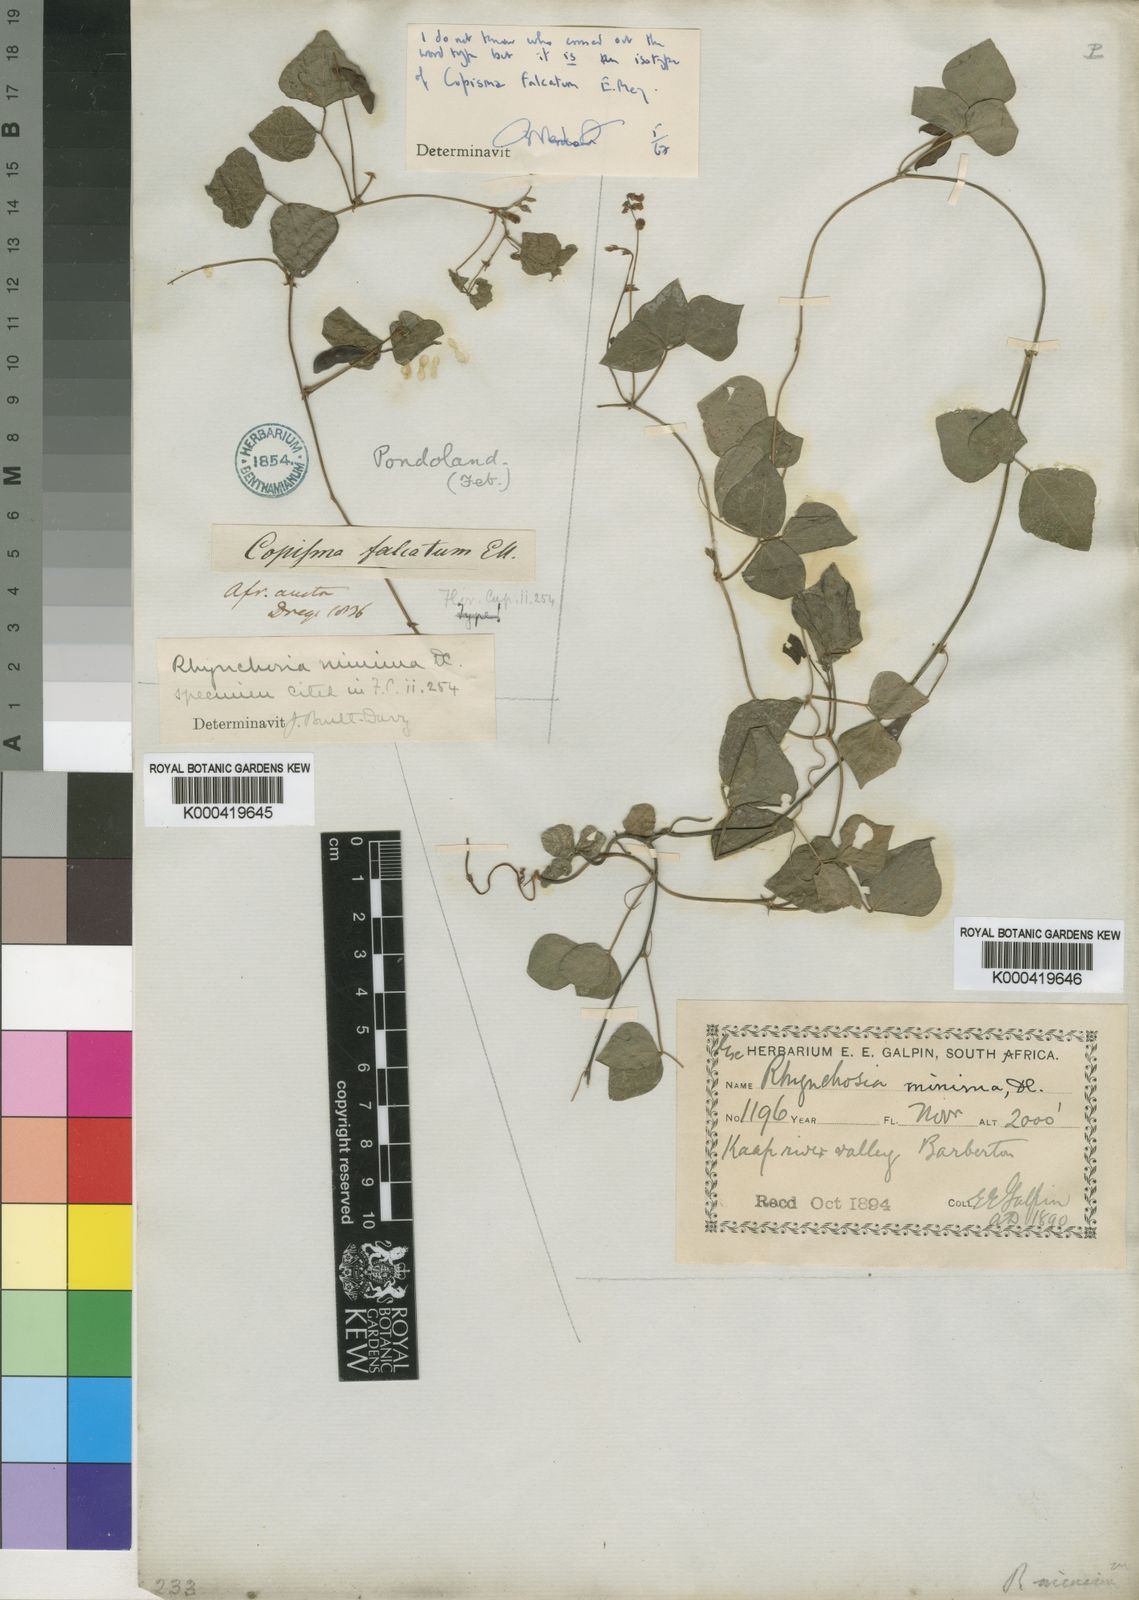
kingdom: Plantae
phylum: Tracheophyta
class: Magnoliopsida
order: Fabales
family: Fabaceae
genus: Rhynchosia
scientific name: Rhynchosia minima
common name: Least snoutbean
